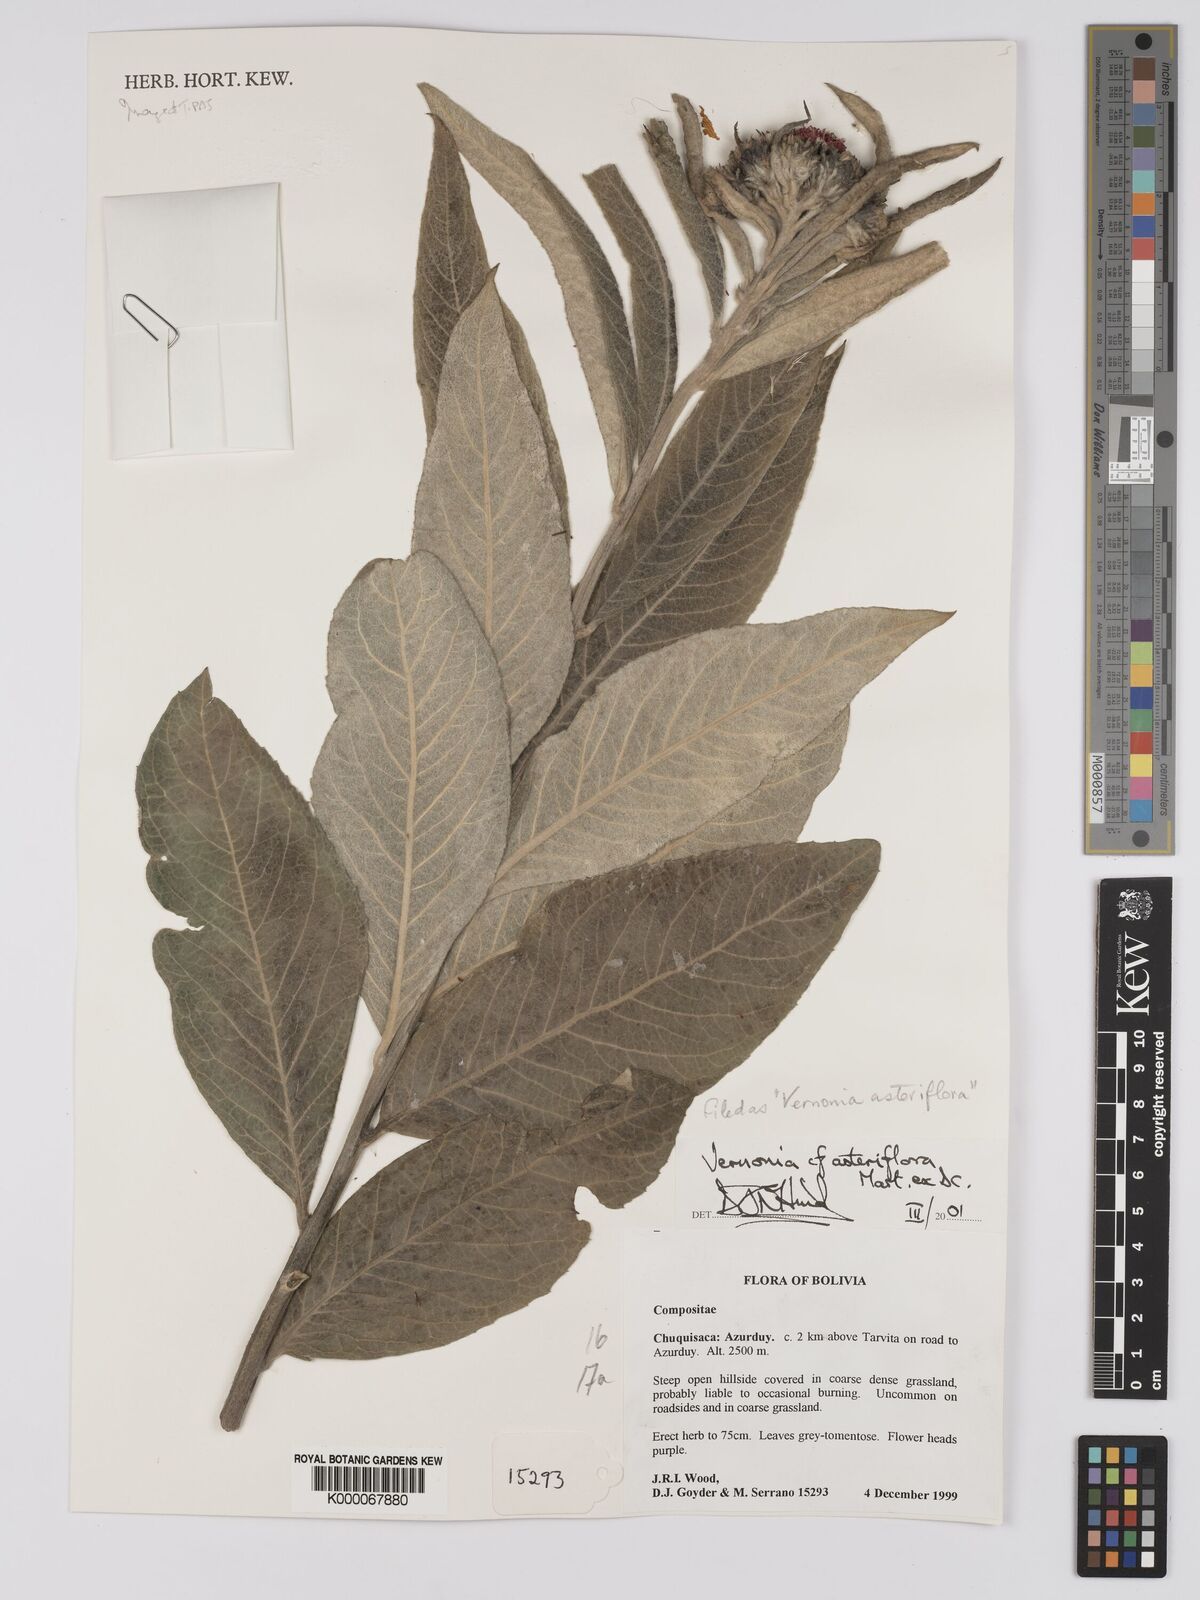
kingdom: Plantae
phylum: Tracheophyta
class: Magnoliopsida
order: Asterales
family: Asteraceae
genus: Lessingianthus
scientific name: Lessingianthus asteriflorus
